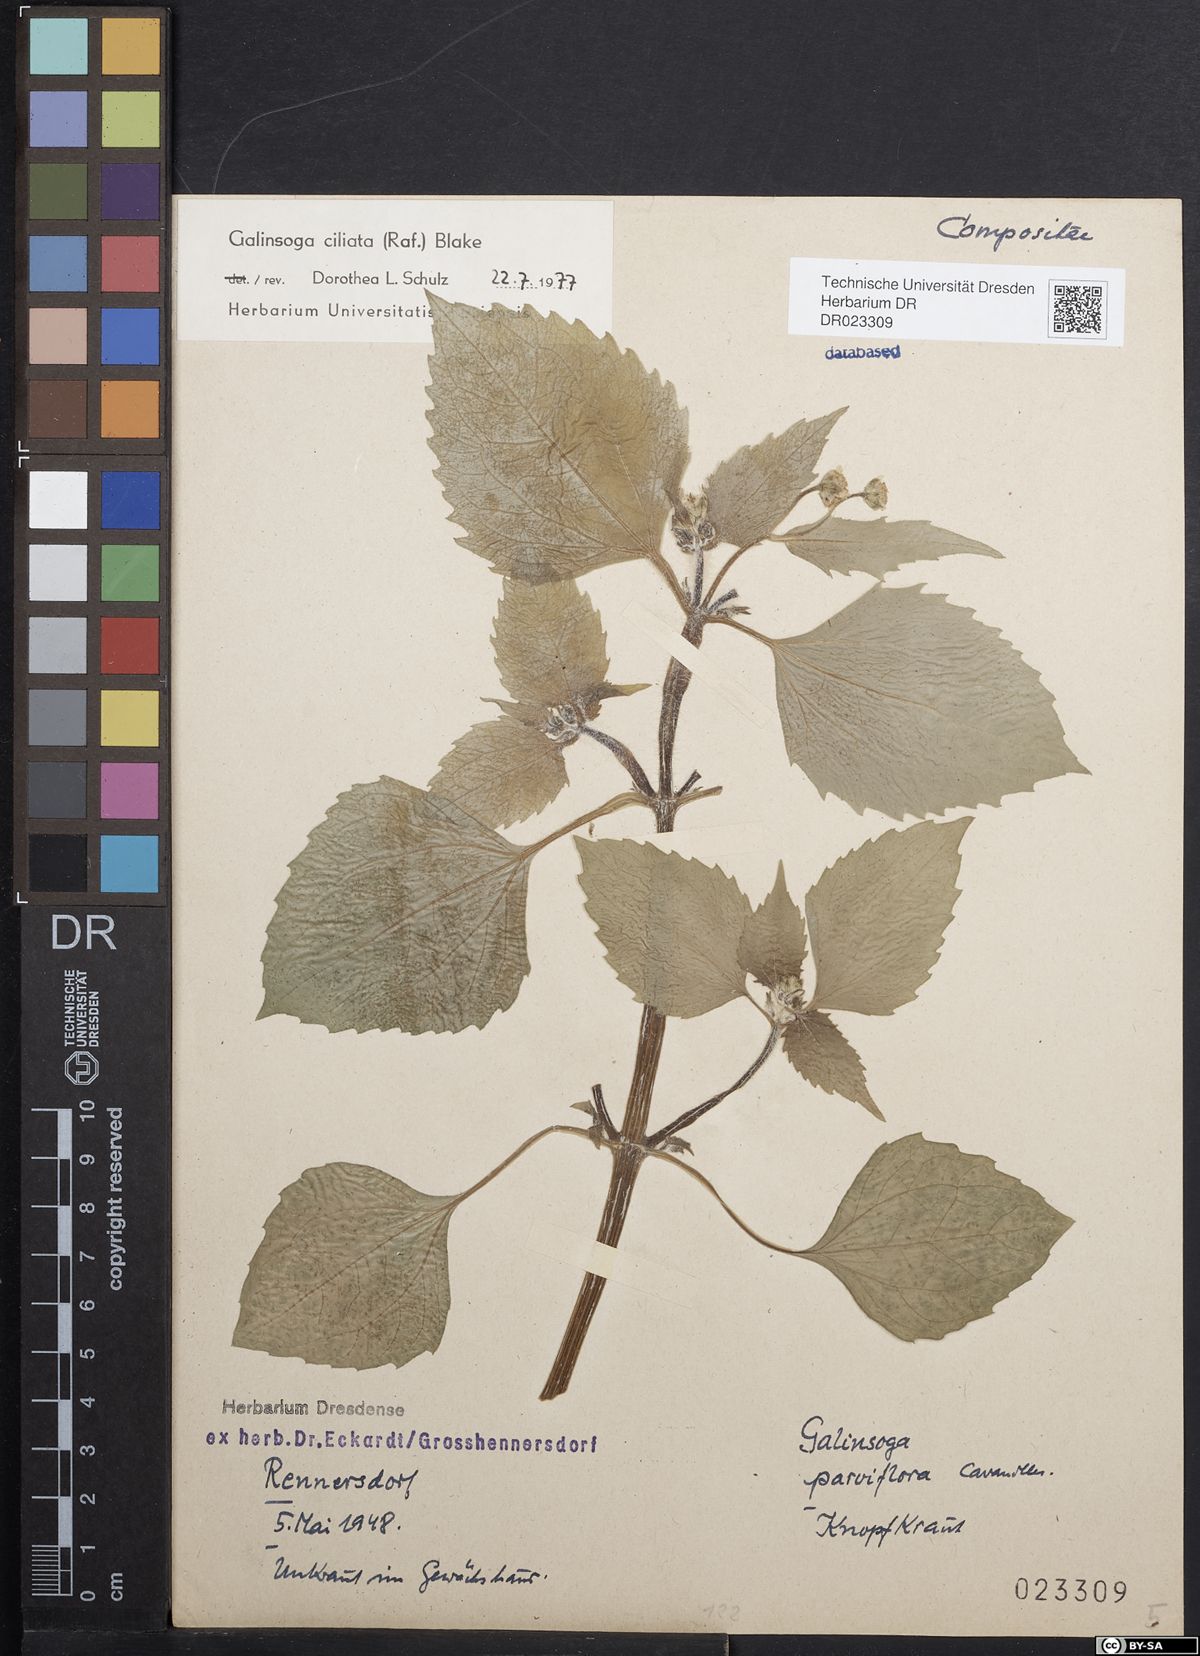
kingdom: Plantae
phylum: Tracheophyta
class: Magnoliopsida
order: Asterales
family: Asteraceae
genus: Galinsoga
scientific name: Galinsoga quadriradiata
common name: Shaggy soldier
